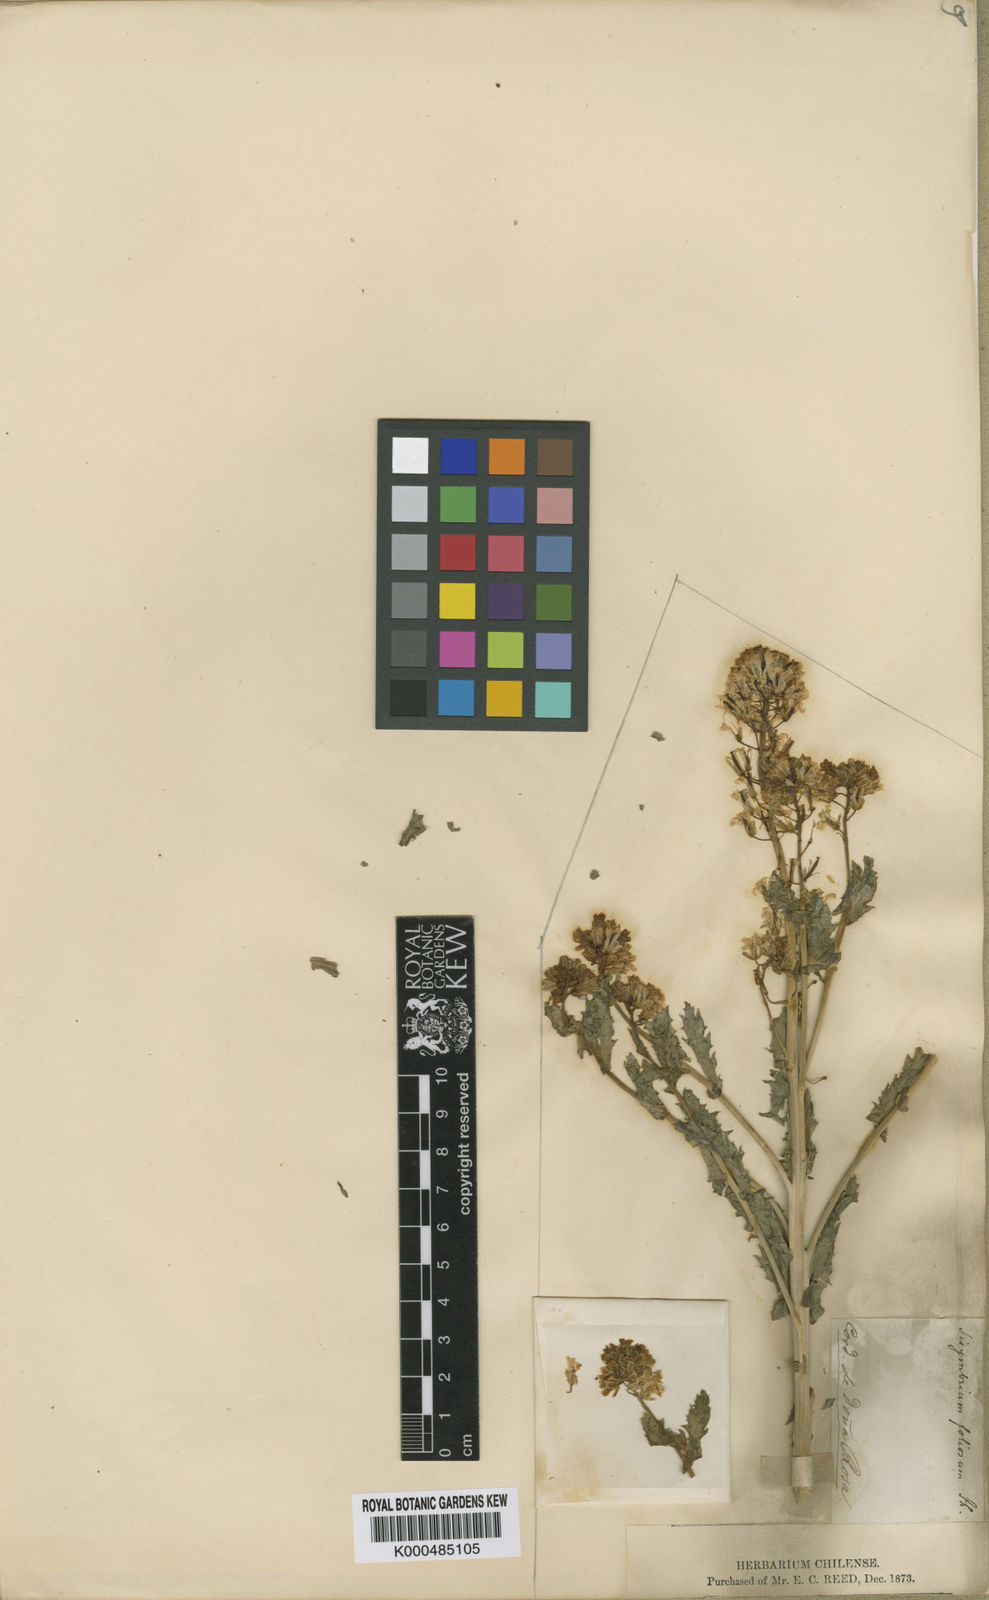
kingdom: Plantae
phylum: Tracheophyta
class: Magnoliopsida
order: Brassicales
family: Brassicaceae
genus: Sisymbrium
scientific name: Sisymbrium
